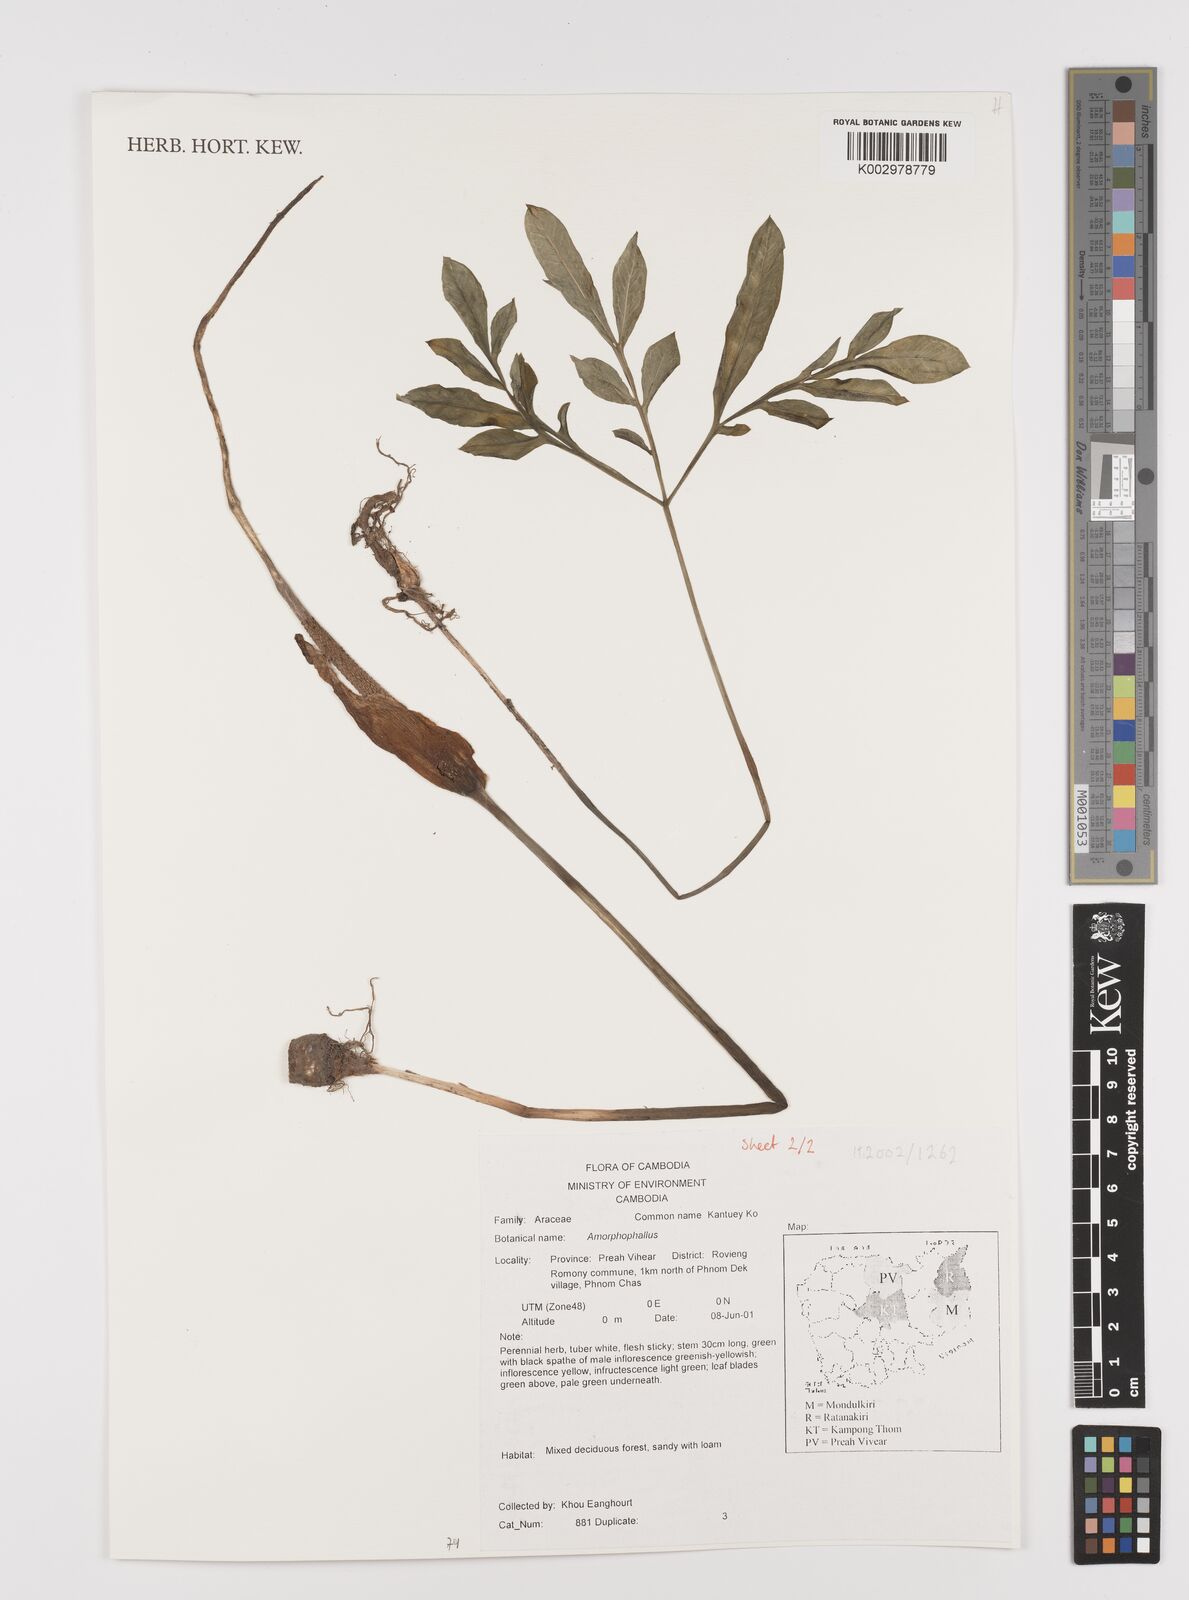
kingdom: Plantae
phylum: Tracheophyta
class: Liliopsida
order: Alismatales
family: Araceae
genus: Amorphophallus
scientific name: Amorphophallus
